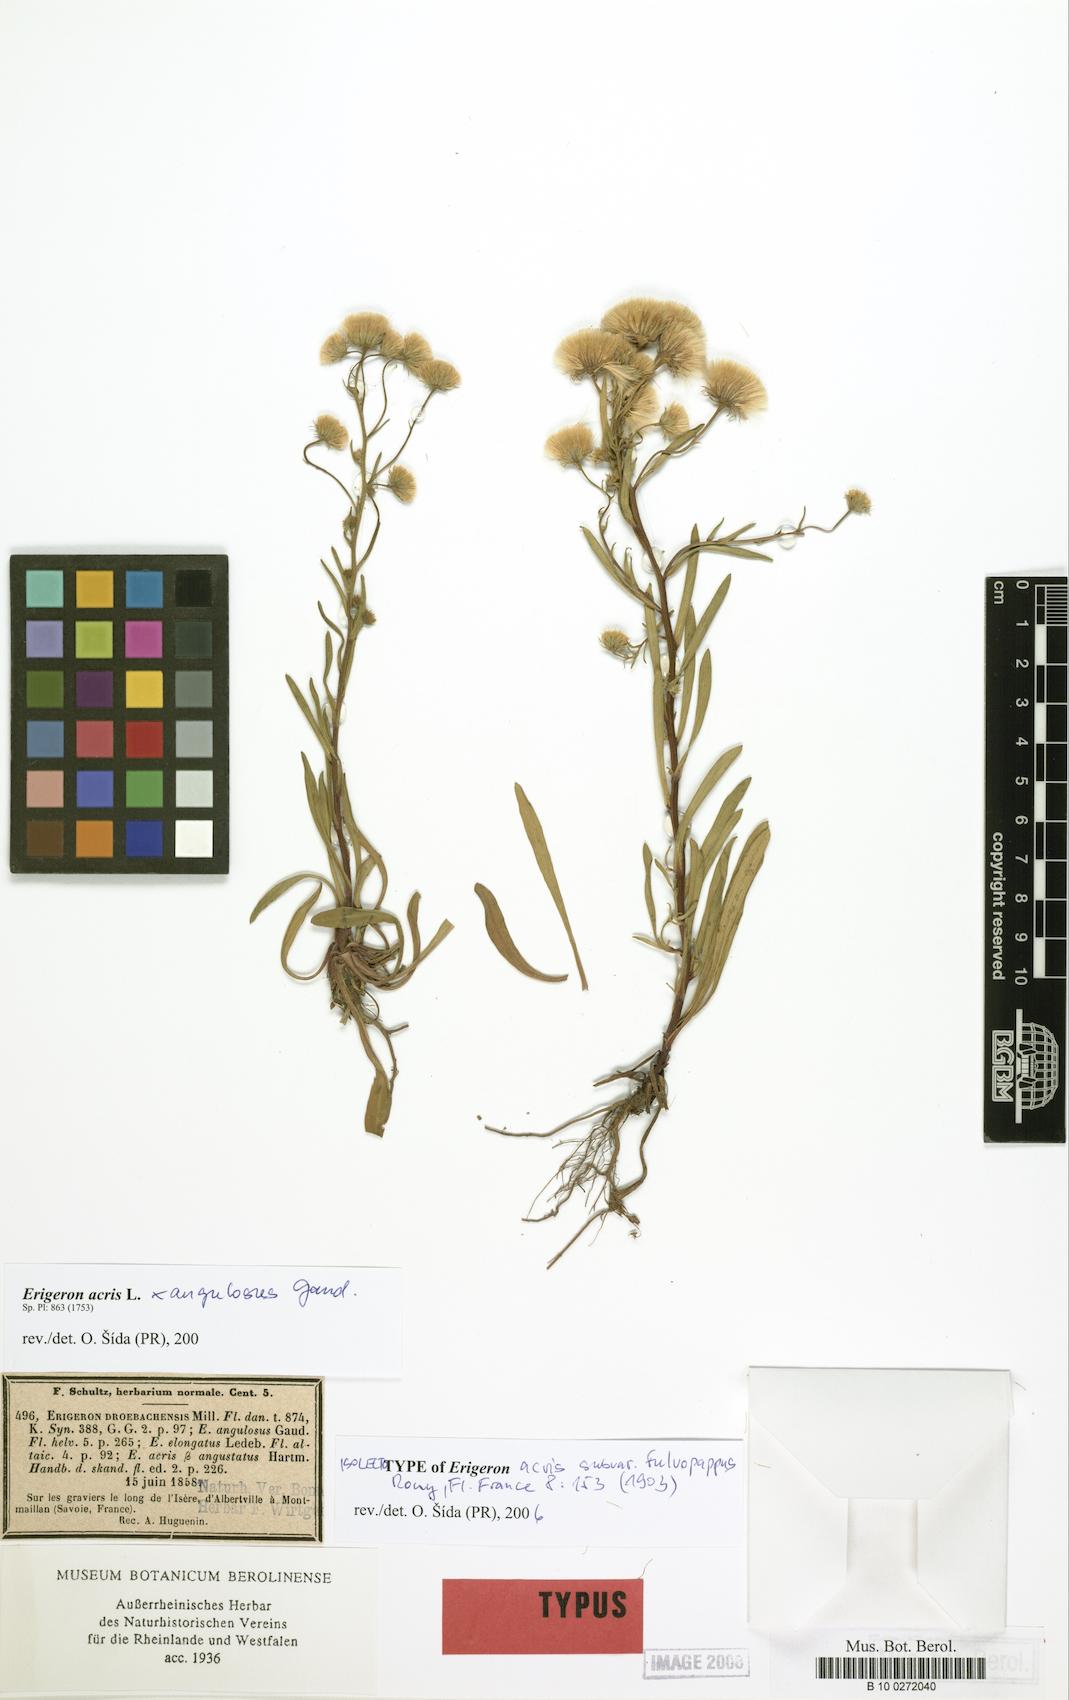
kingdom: Plantae
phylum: Tracheophyta
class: Magnoliopsida
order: Asterales
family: Asteraceae
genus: Erigeron
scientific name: Erigeron acris
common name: Blue fleabane
